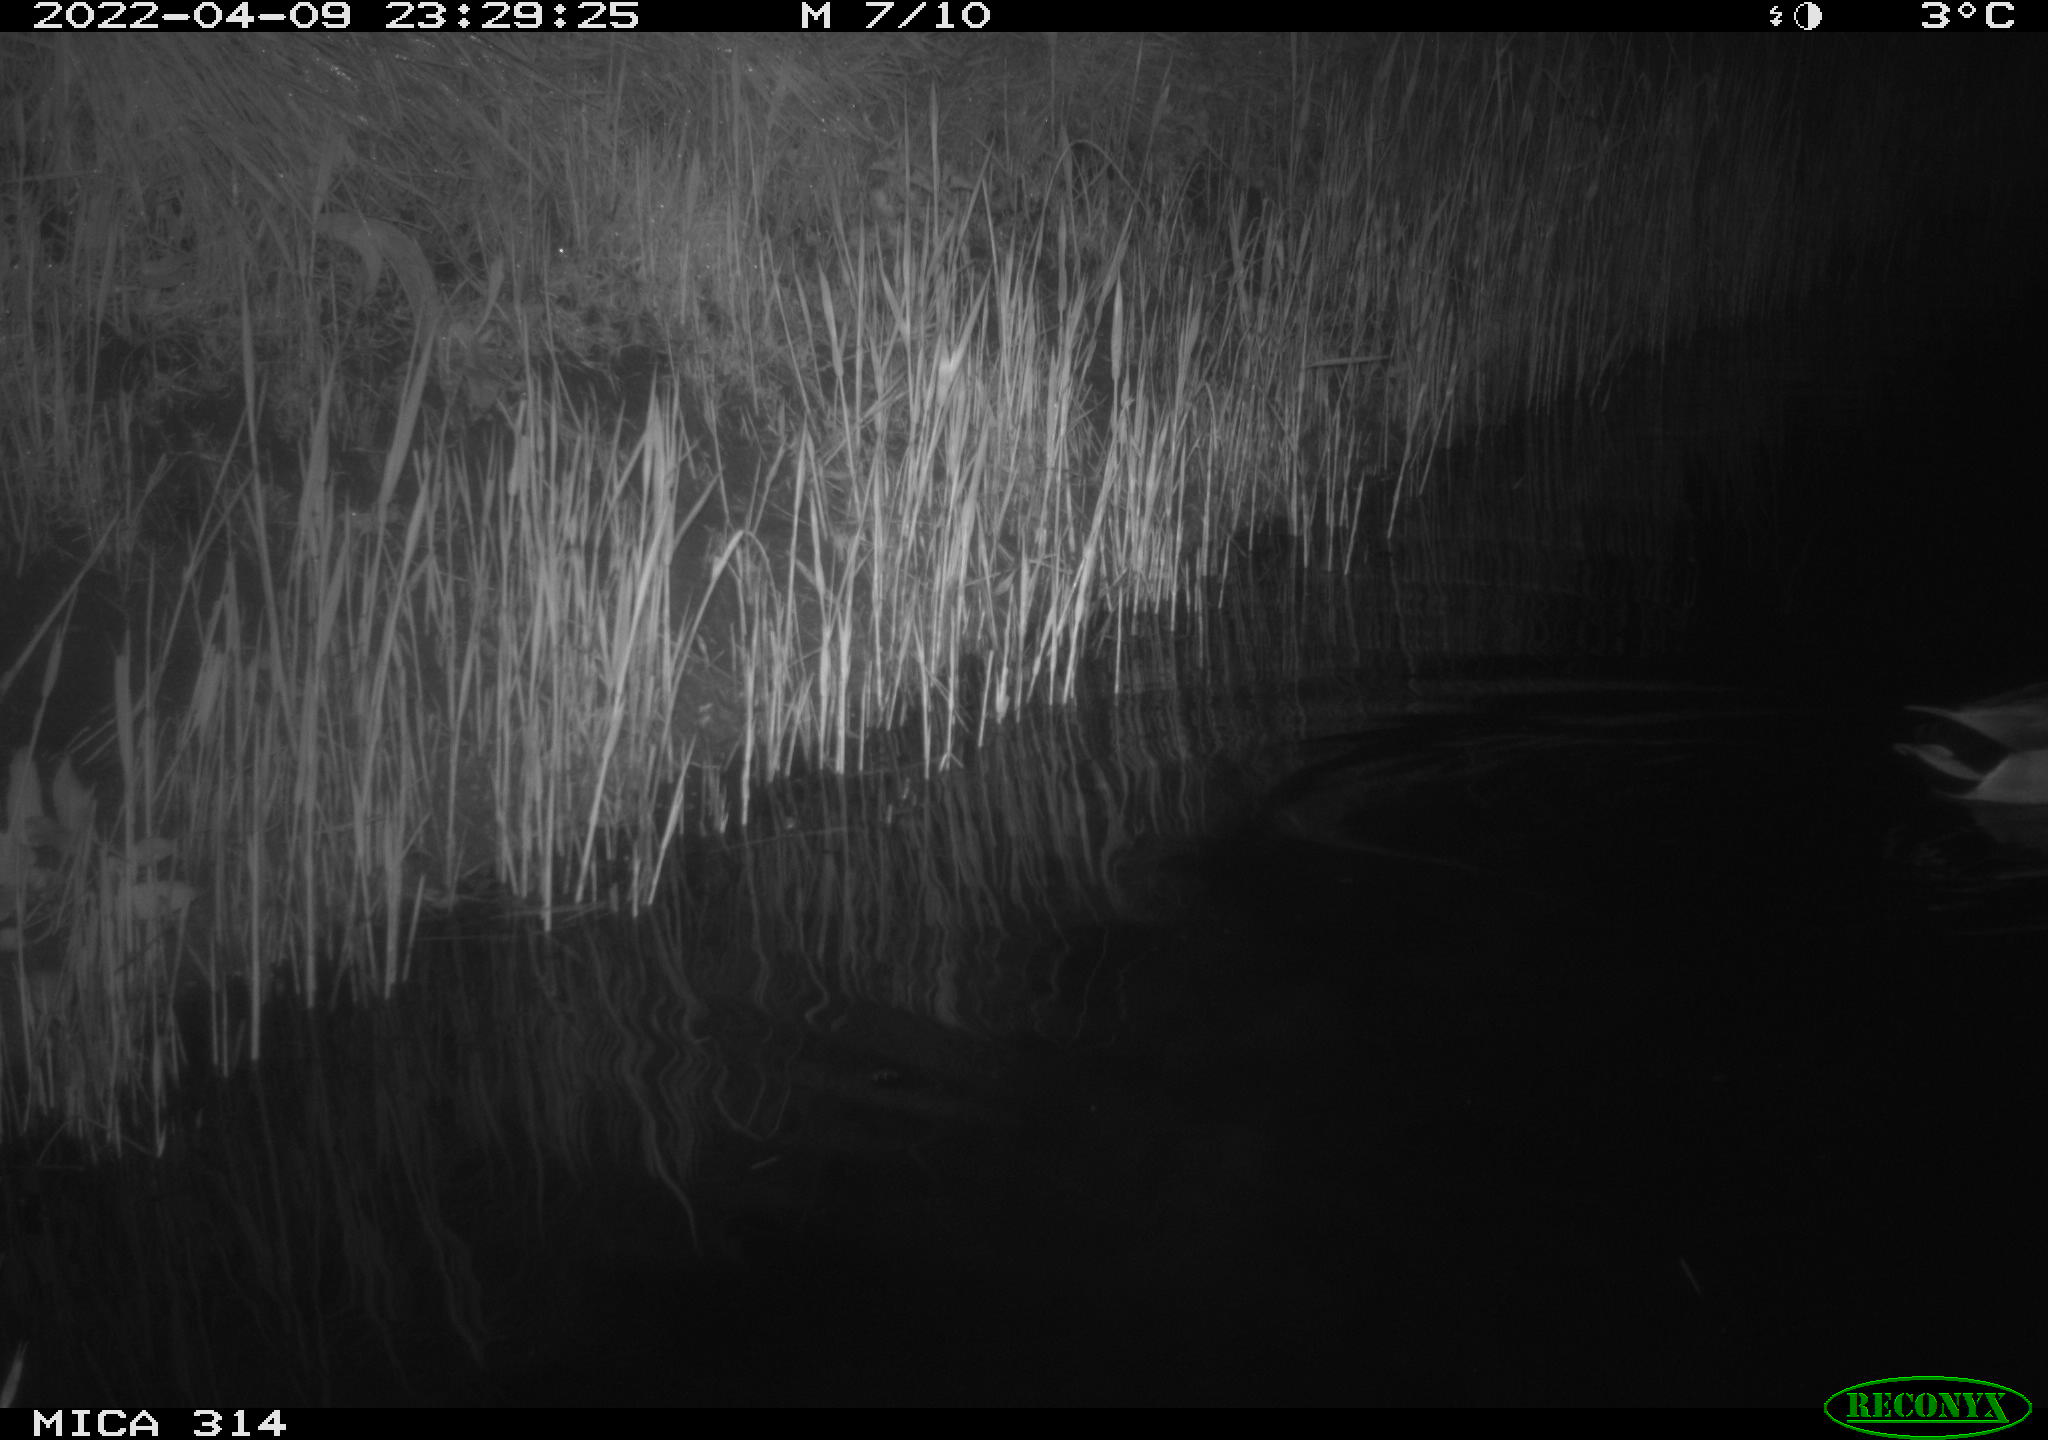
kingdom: Animalia
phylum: Chordata
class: Aves
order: Anseriformes
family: Anatidae
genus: Anas
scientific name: Anas platyrhynchos
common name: Mallard
